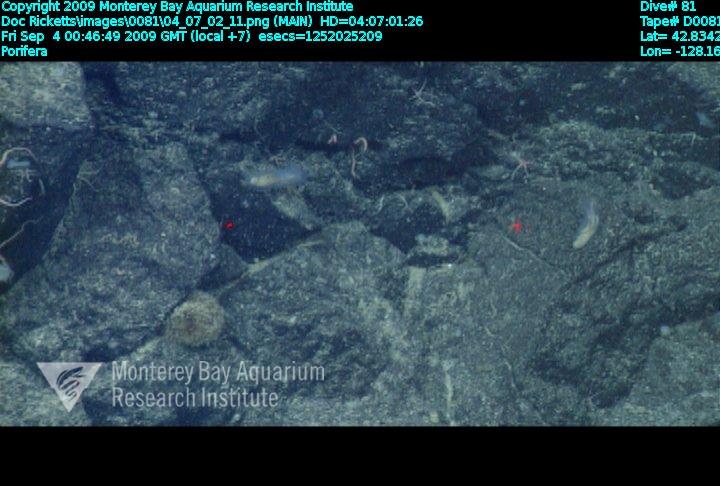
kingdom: Animalia
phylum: Porifera
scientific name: Porifera
